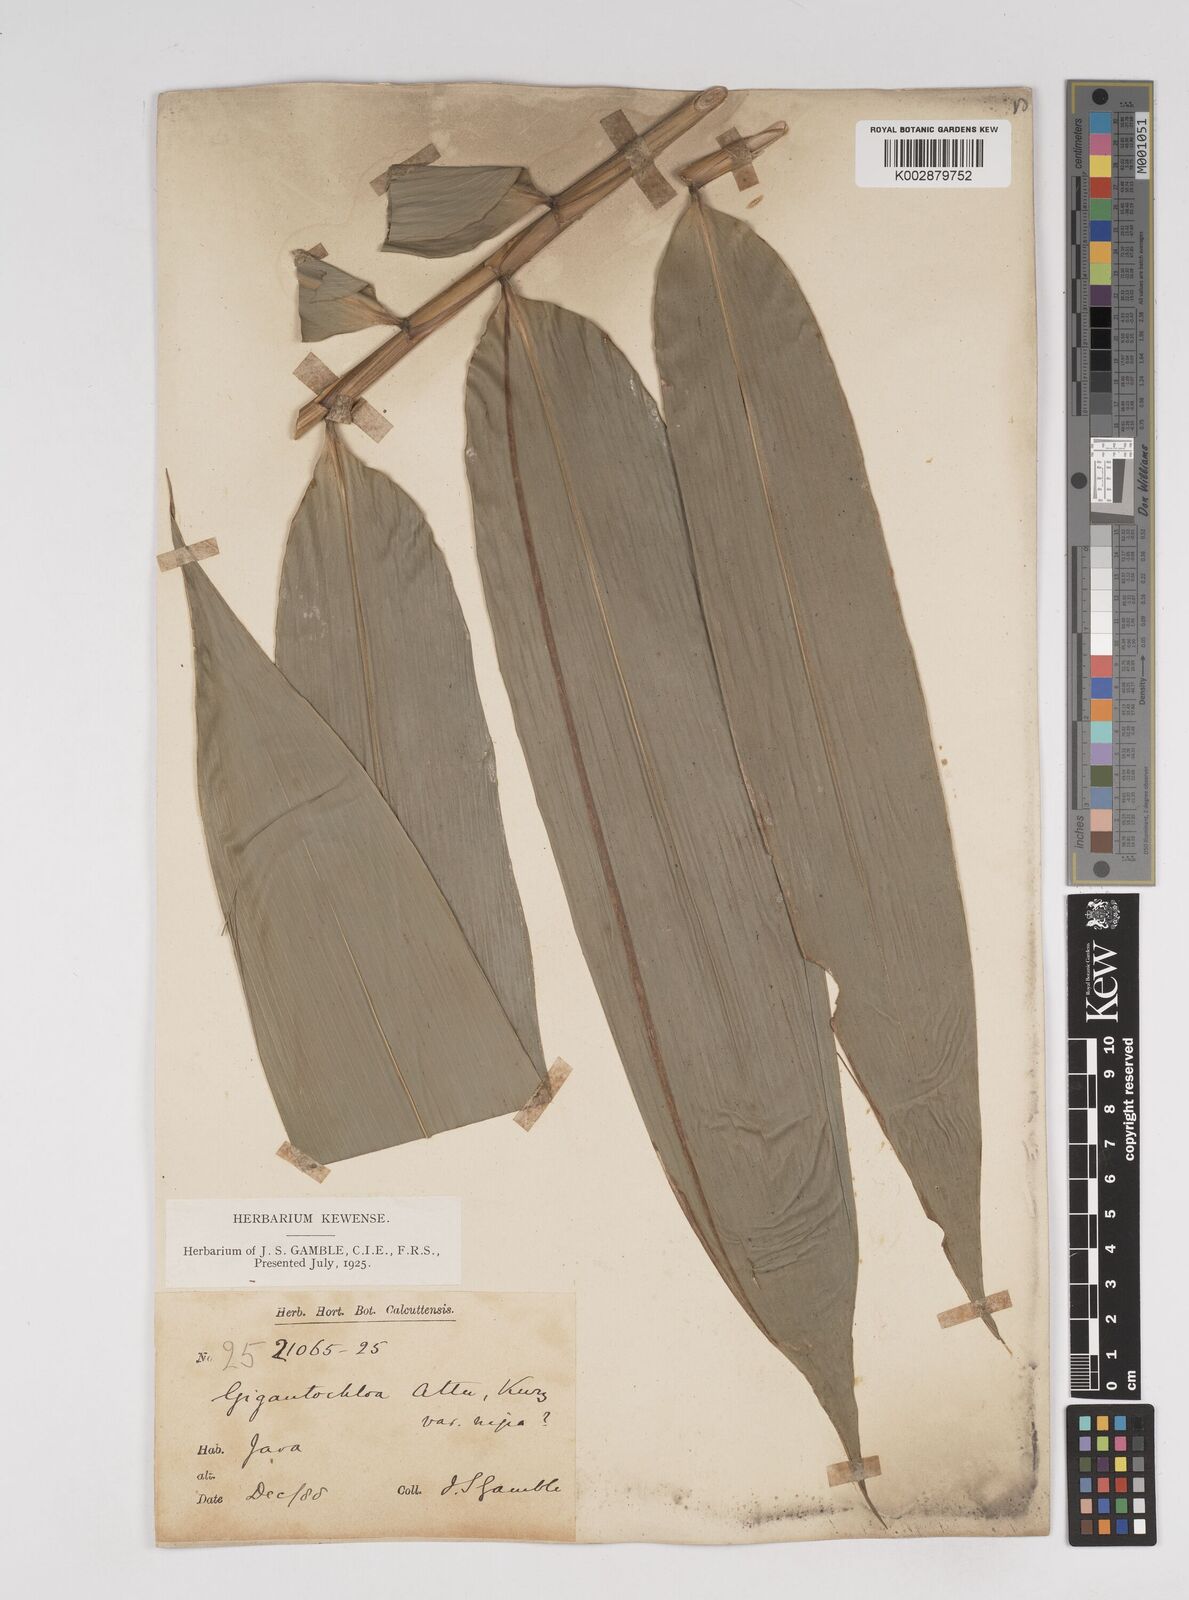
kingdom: Plantae
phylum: Tracheophyta
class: Liliopsida
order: Poales
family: Poaceae
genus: Gigantochloa
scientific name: Gigantochloa atter
